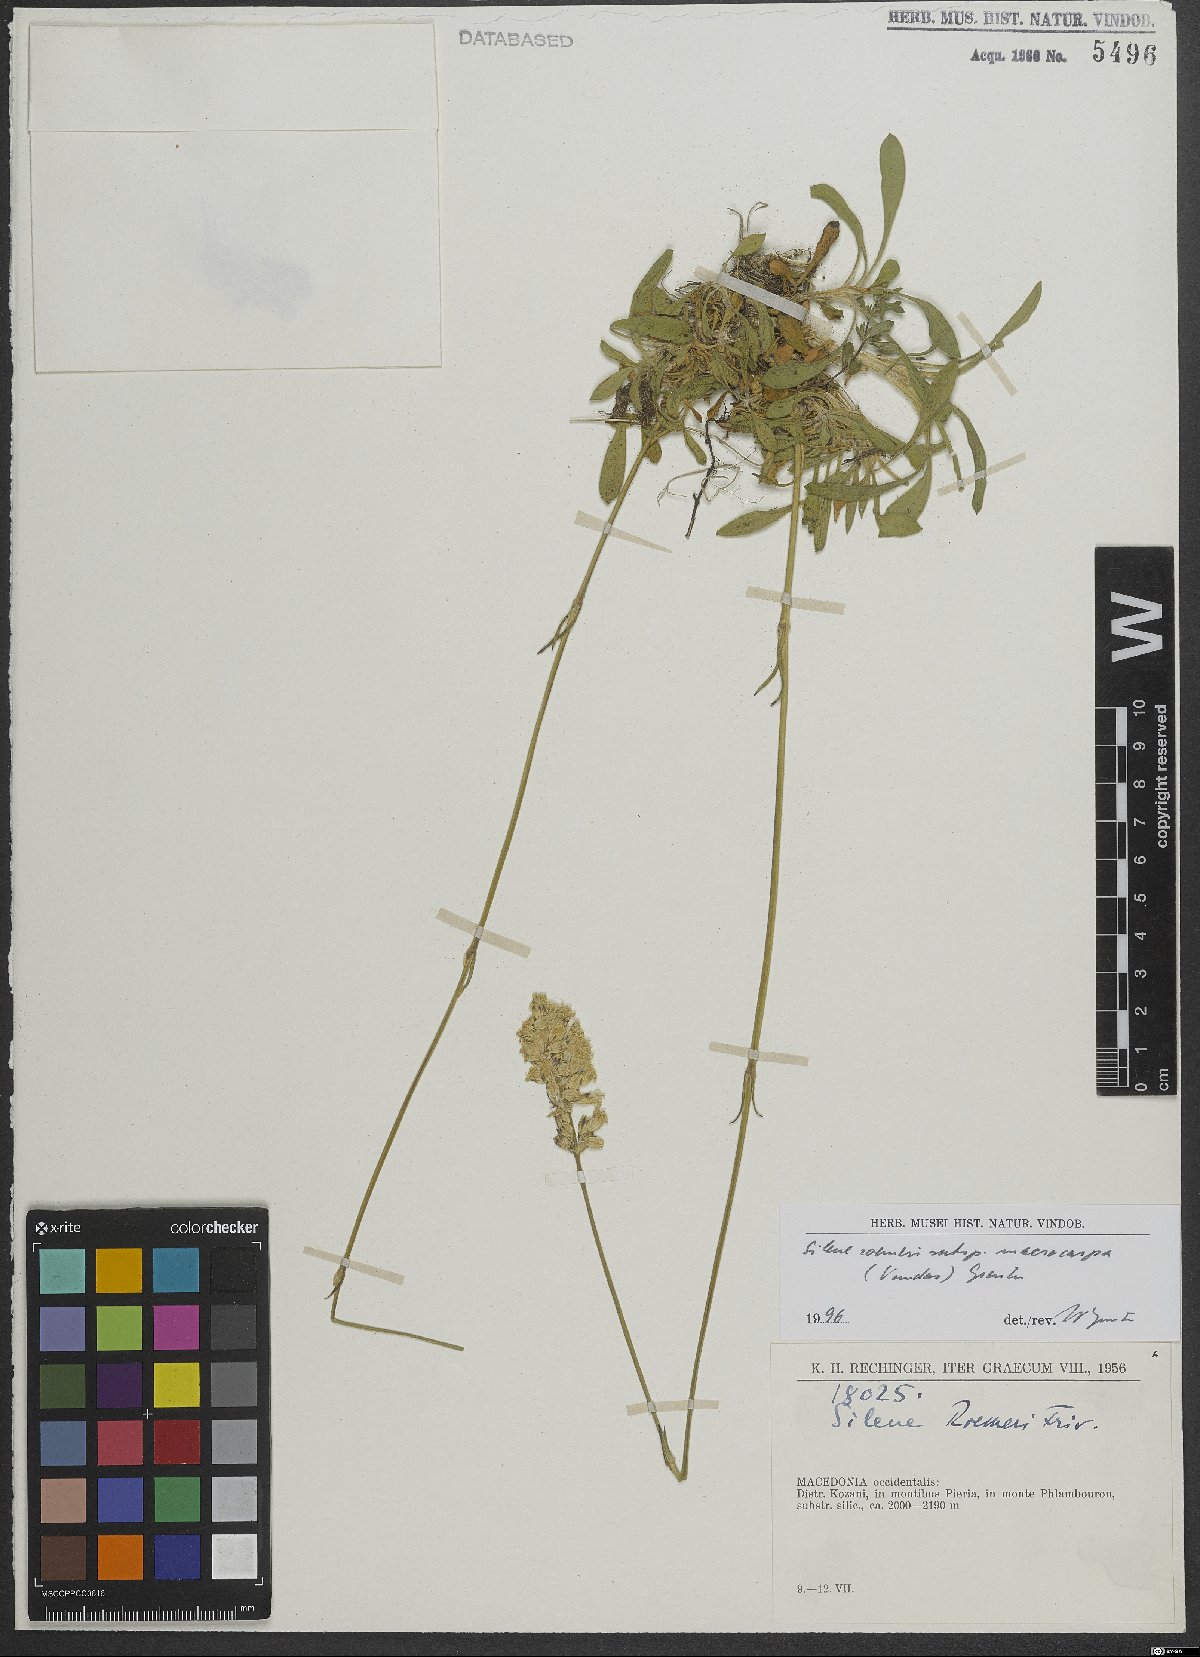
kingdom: Plantae
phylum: Tracheophyta
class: Magnoliopsida
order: Caryophyllales
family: Caryophyllaceae
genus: Silene
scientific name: Silene roemeri
